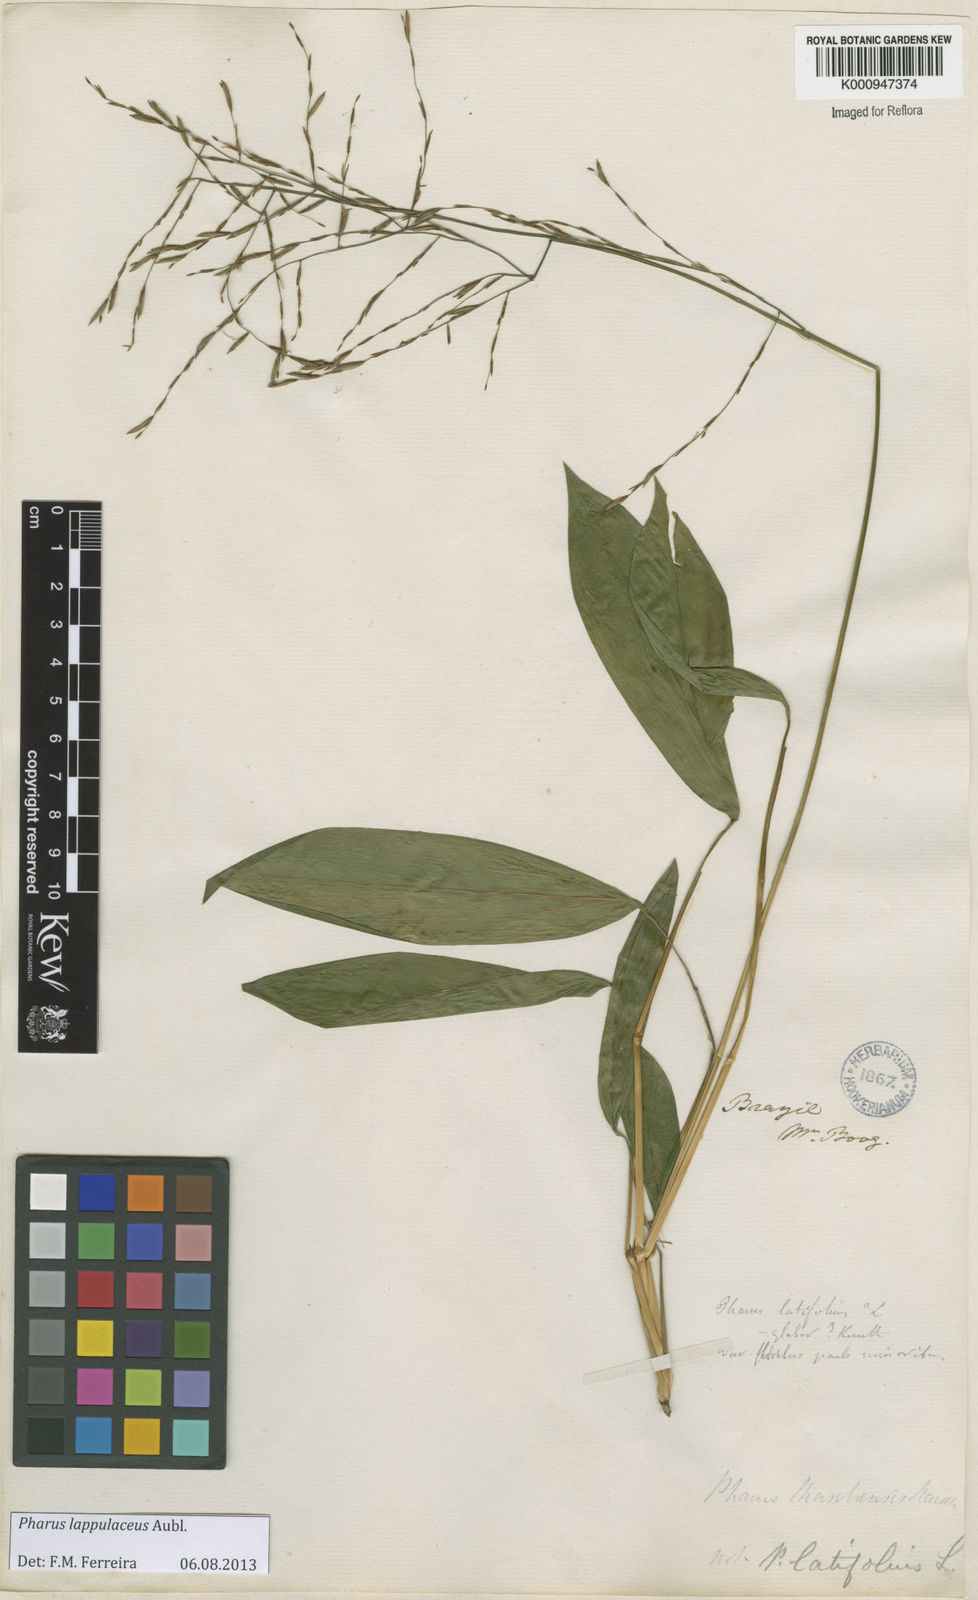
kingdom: Plantae
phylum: Tracheophyta
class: Liliopsida
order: Poales
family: Poaceae
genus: Pharus
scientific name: Pharus lappulaceus
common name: Creeping leafstalk grass
